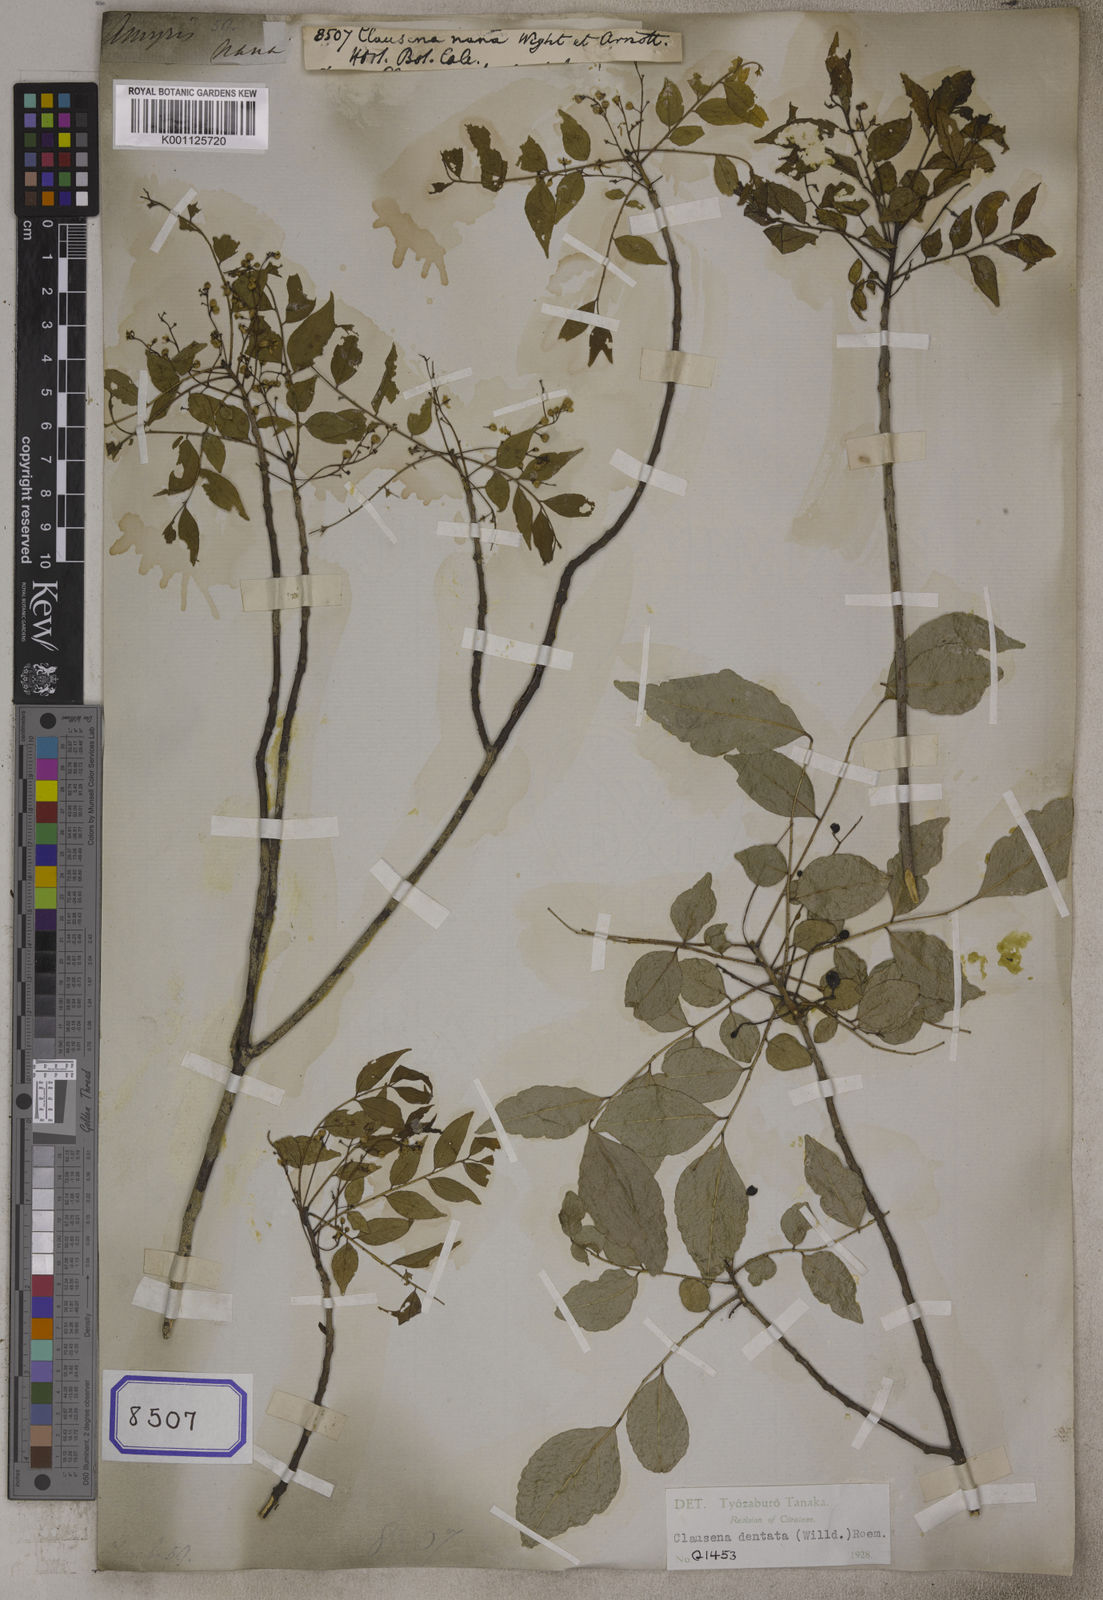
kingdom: Plantae
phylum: Tracheophyta
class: Magnoliopsida
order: Sapindales
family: Rutaceae
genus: Clausena
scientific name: Clausena anisata
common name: Horsewood
